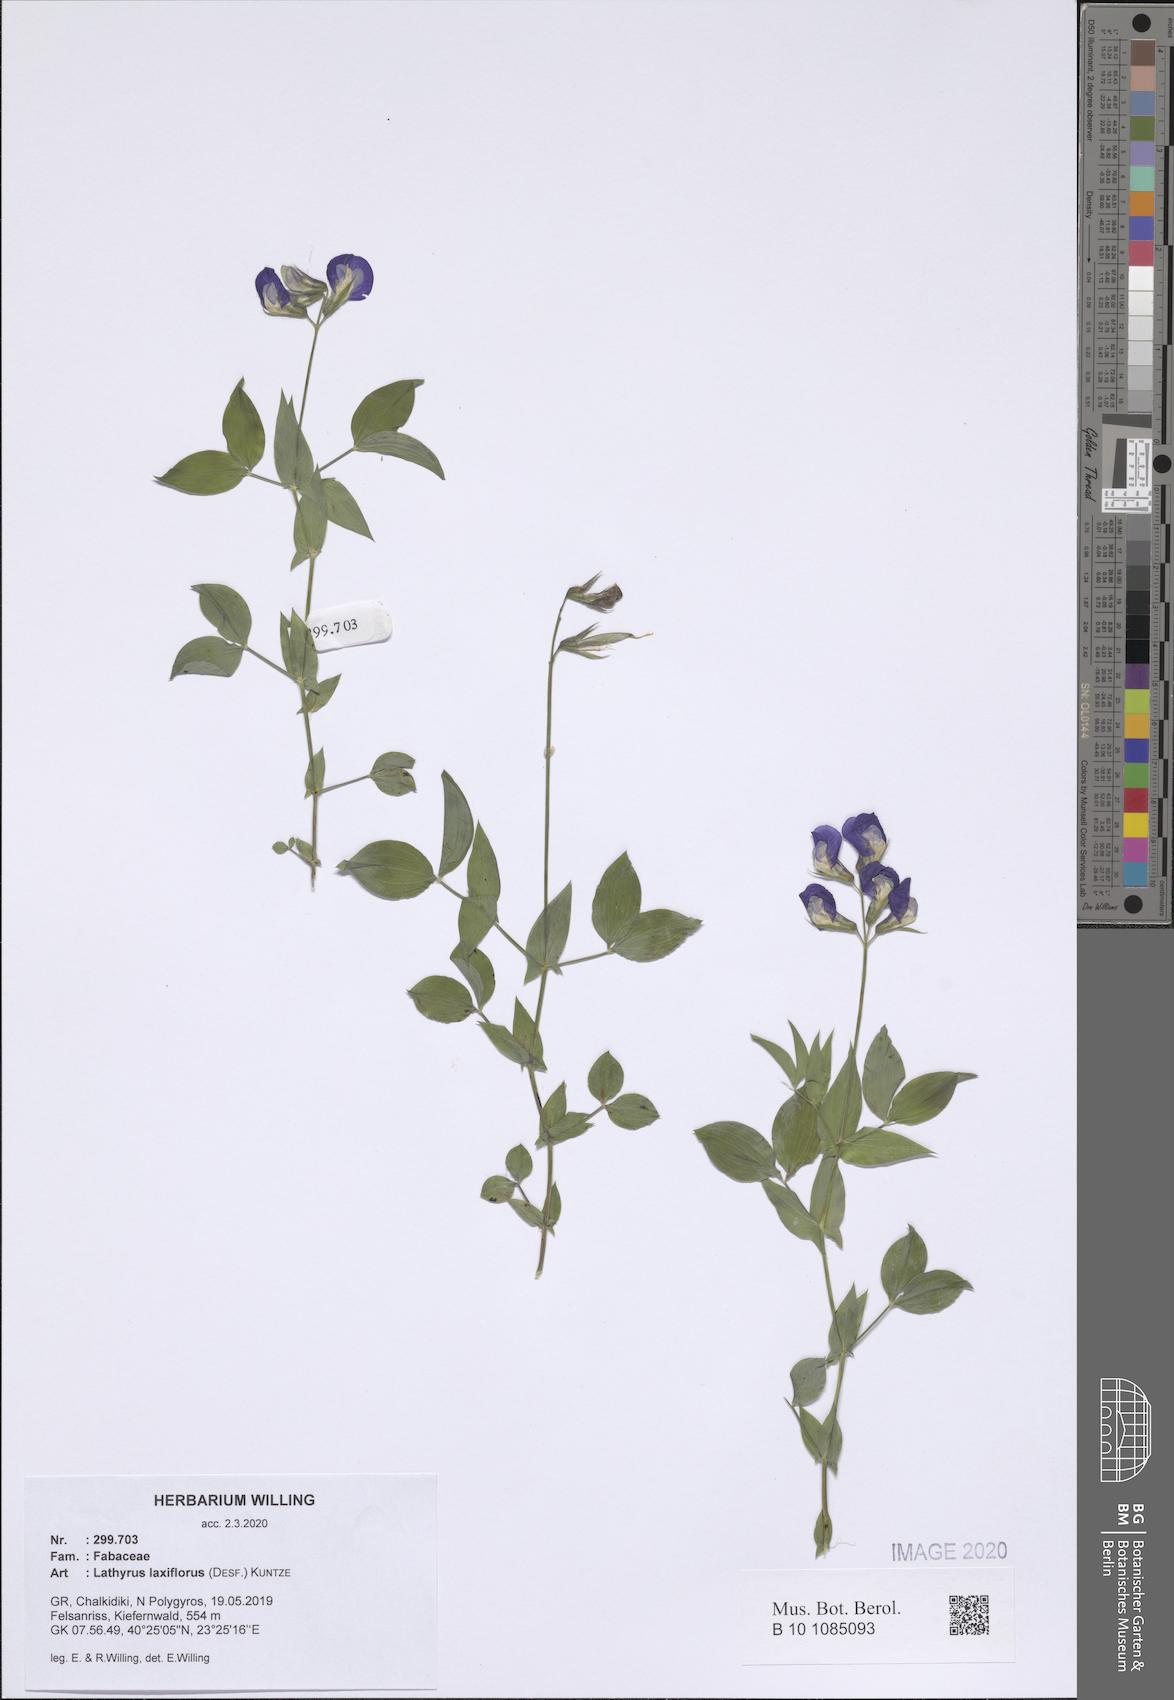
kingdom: Plantae
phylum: Tracheophyta
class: Magnoliopsida
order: Fabales
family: Fabaceae
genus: Lathyrus
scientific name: Lathyrus laxiflorus
